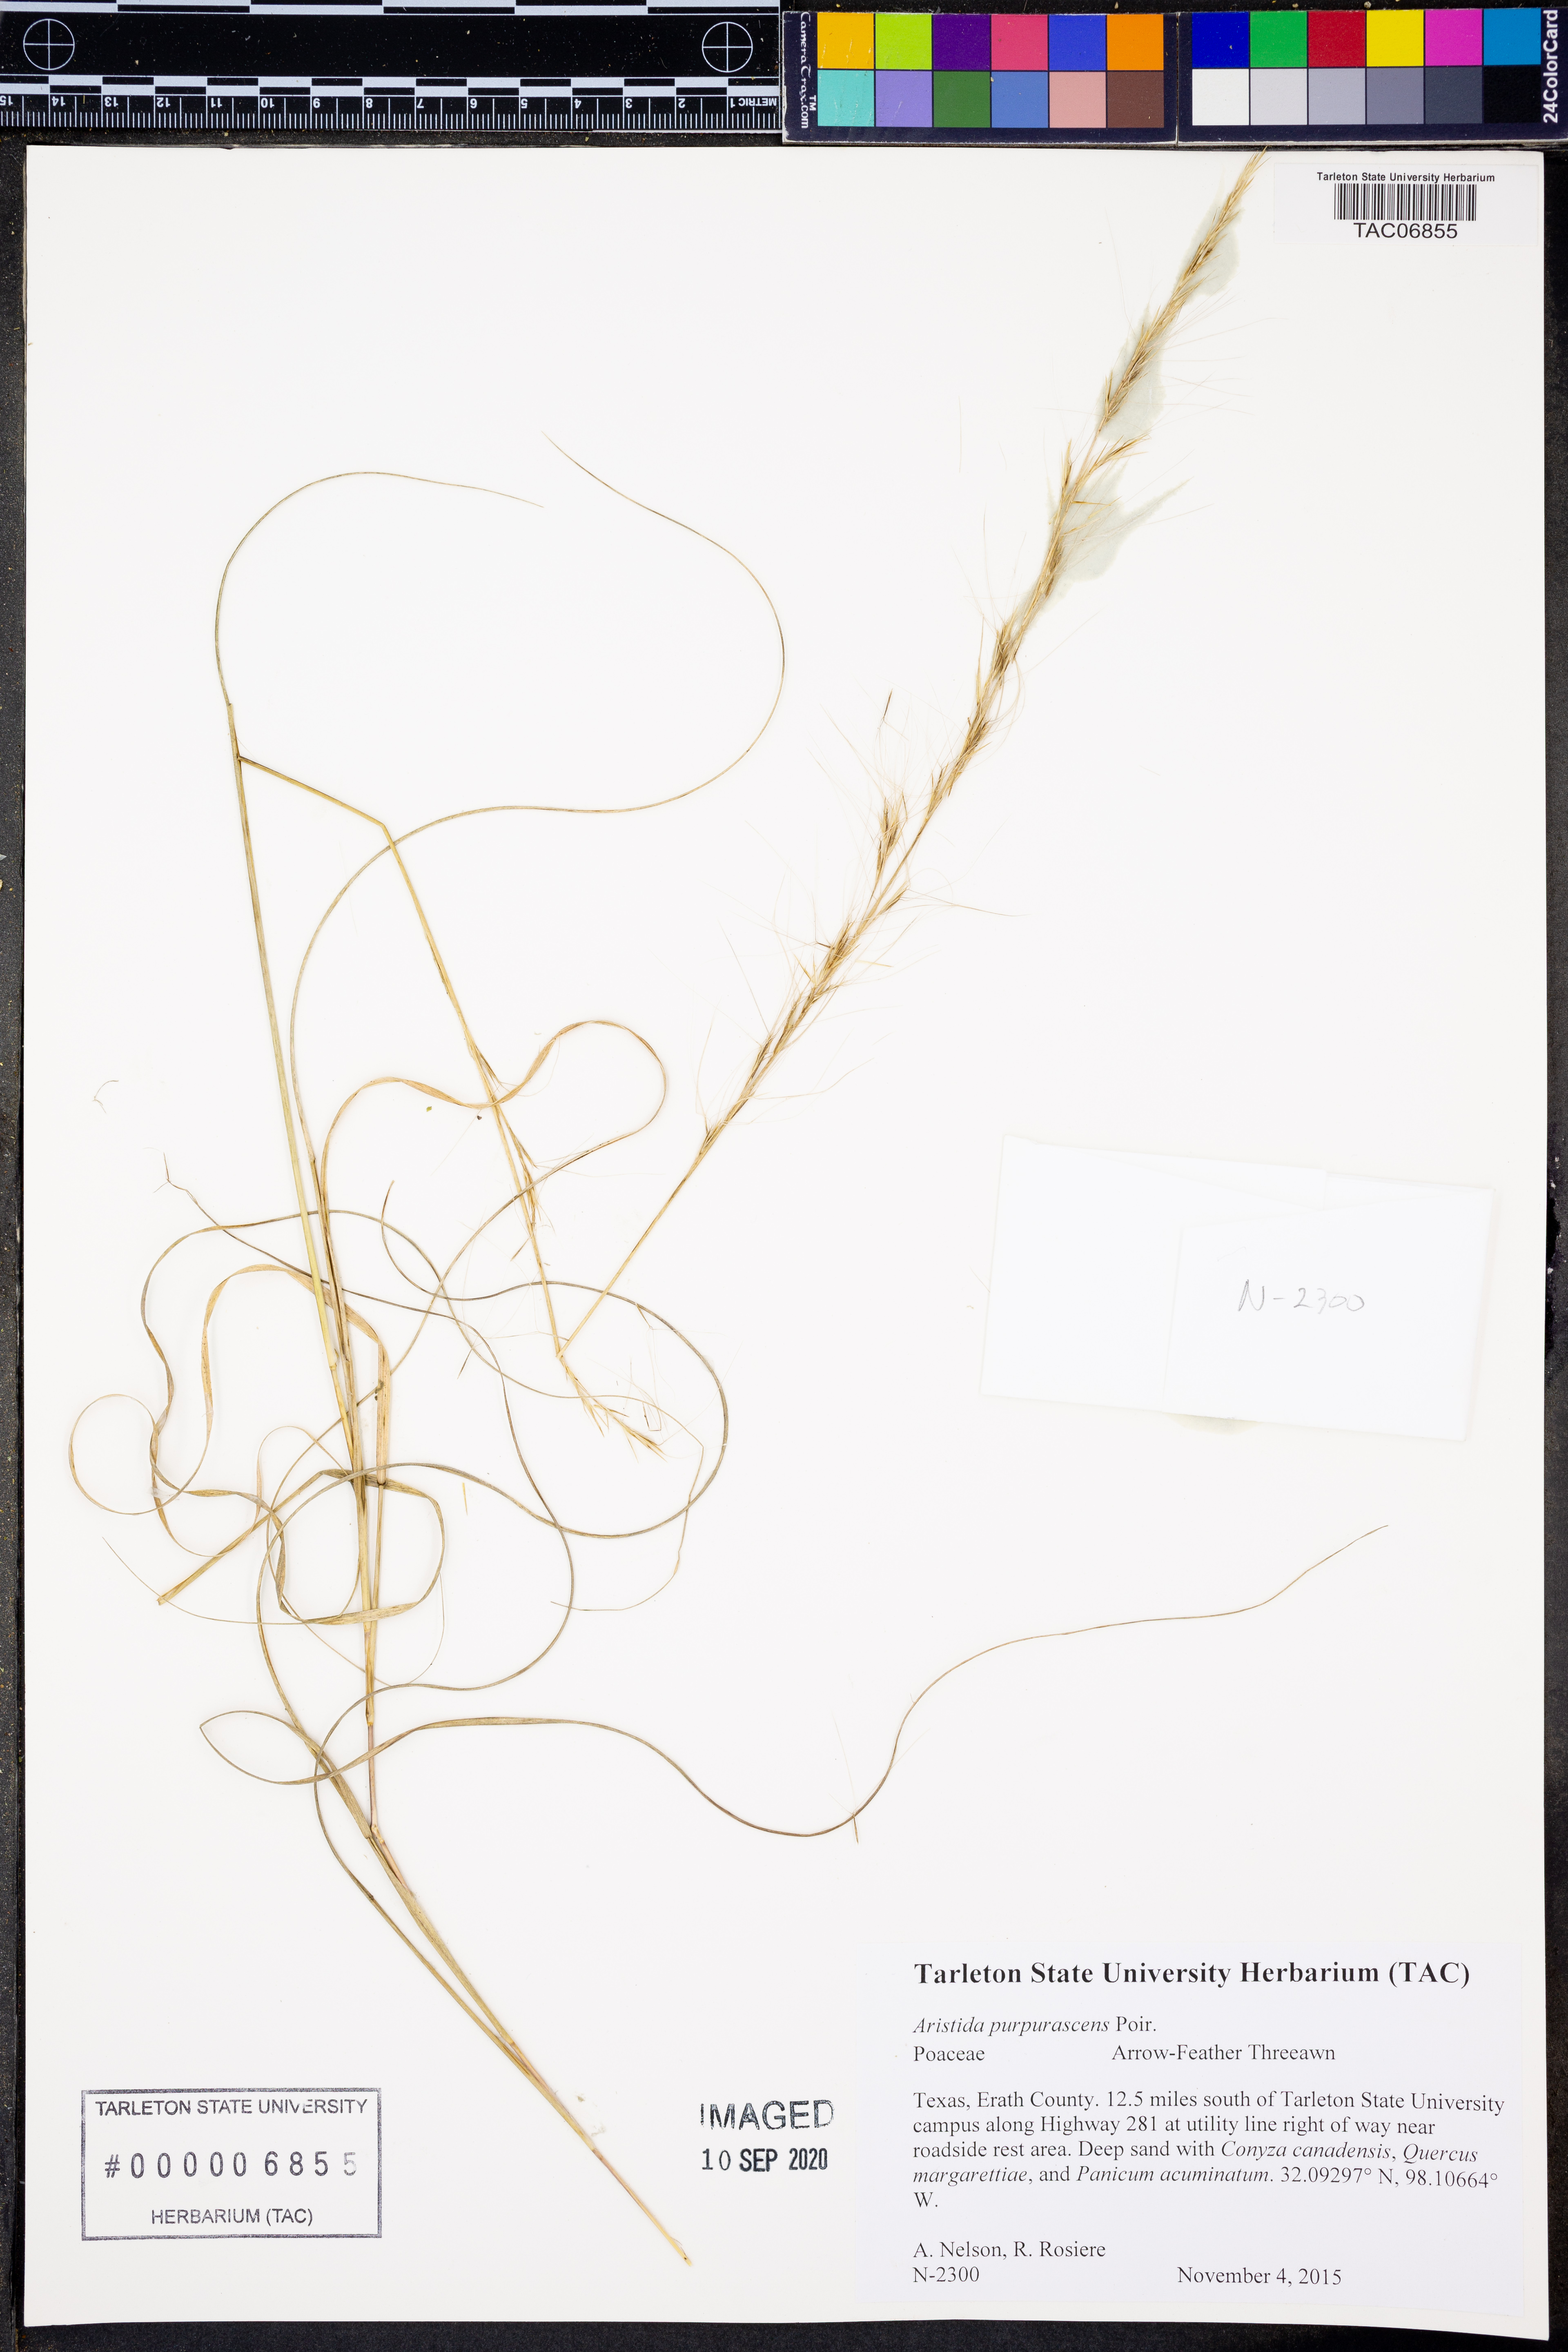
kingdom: Plantae
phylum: Tracheophyta
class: Liliopsida
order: Poales
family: Poaceae
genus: Aristida
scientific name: Aristida purpurascens
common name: Arrow-feather
